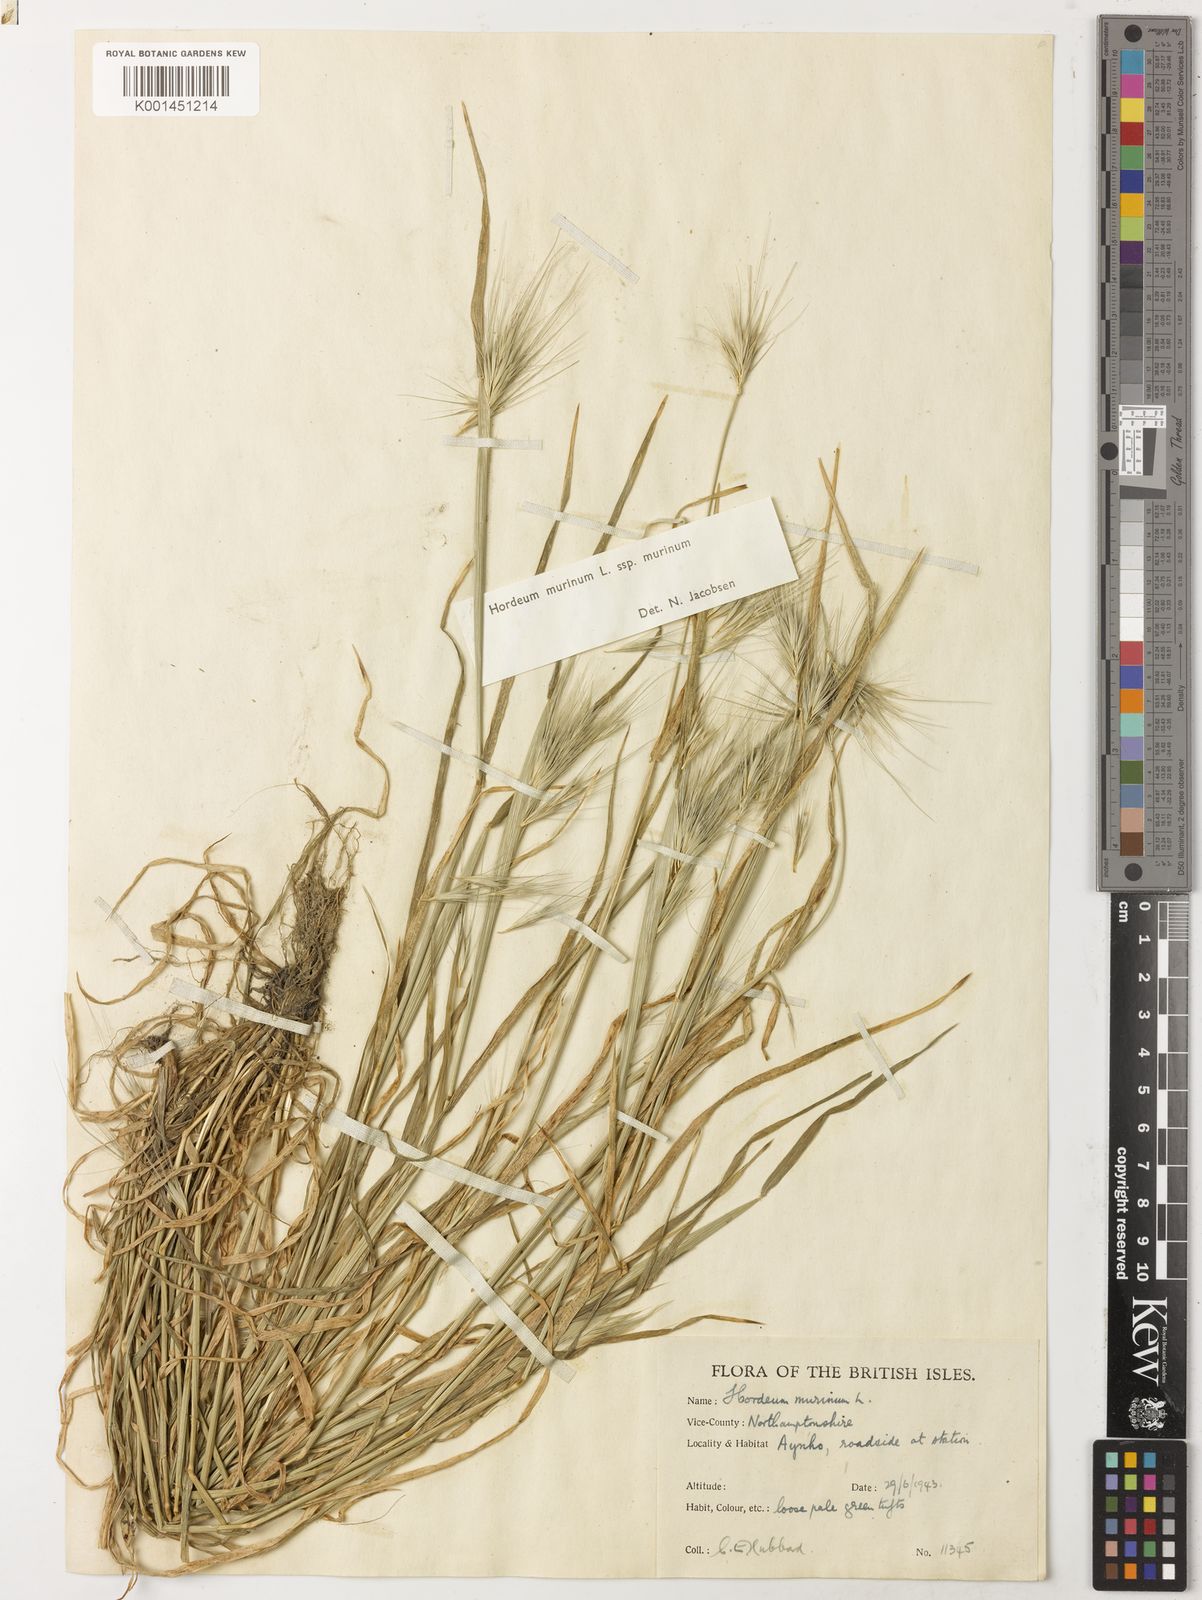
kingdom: Plantae
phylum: Tracheophyta
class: Liliopsida
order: Poales
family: Poaceae
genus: Hordeum
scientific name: Hordeum murinum
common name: Wall barley
